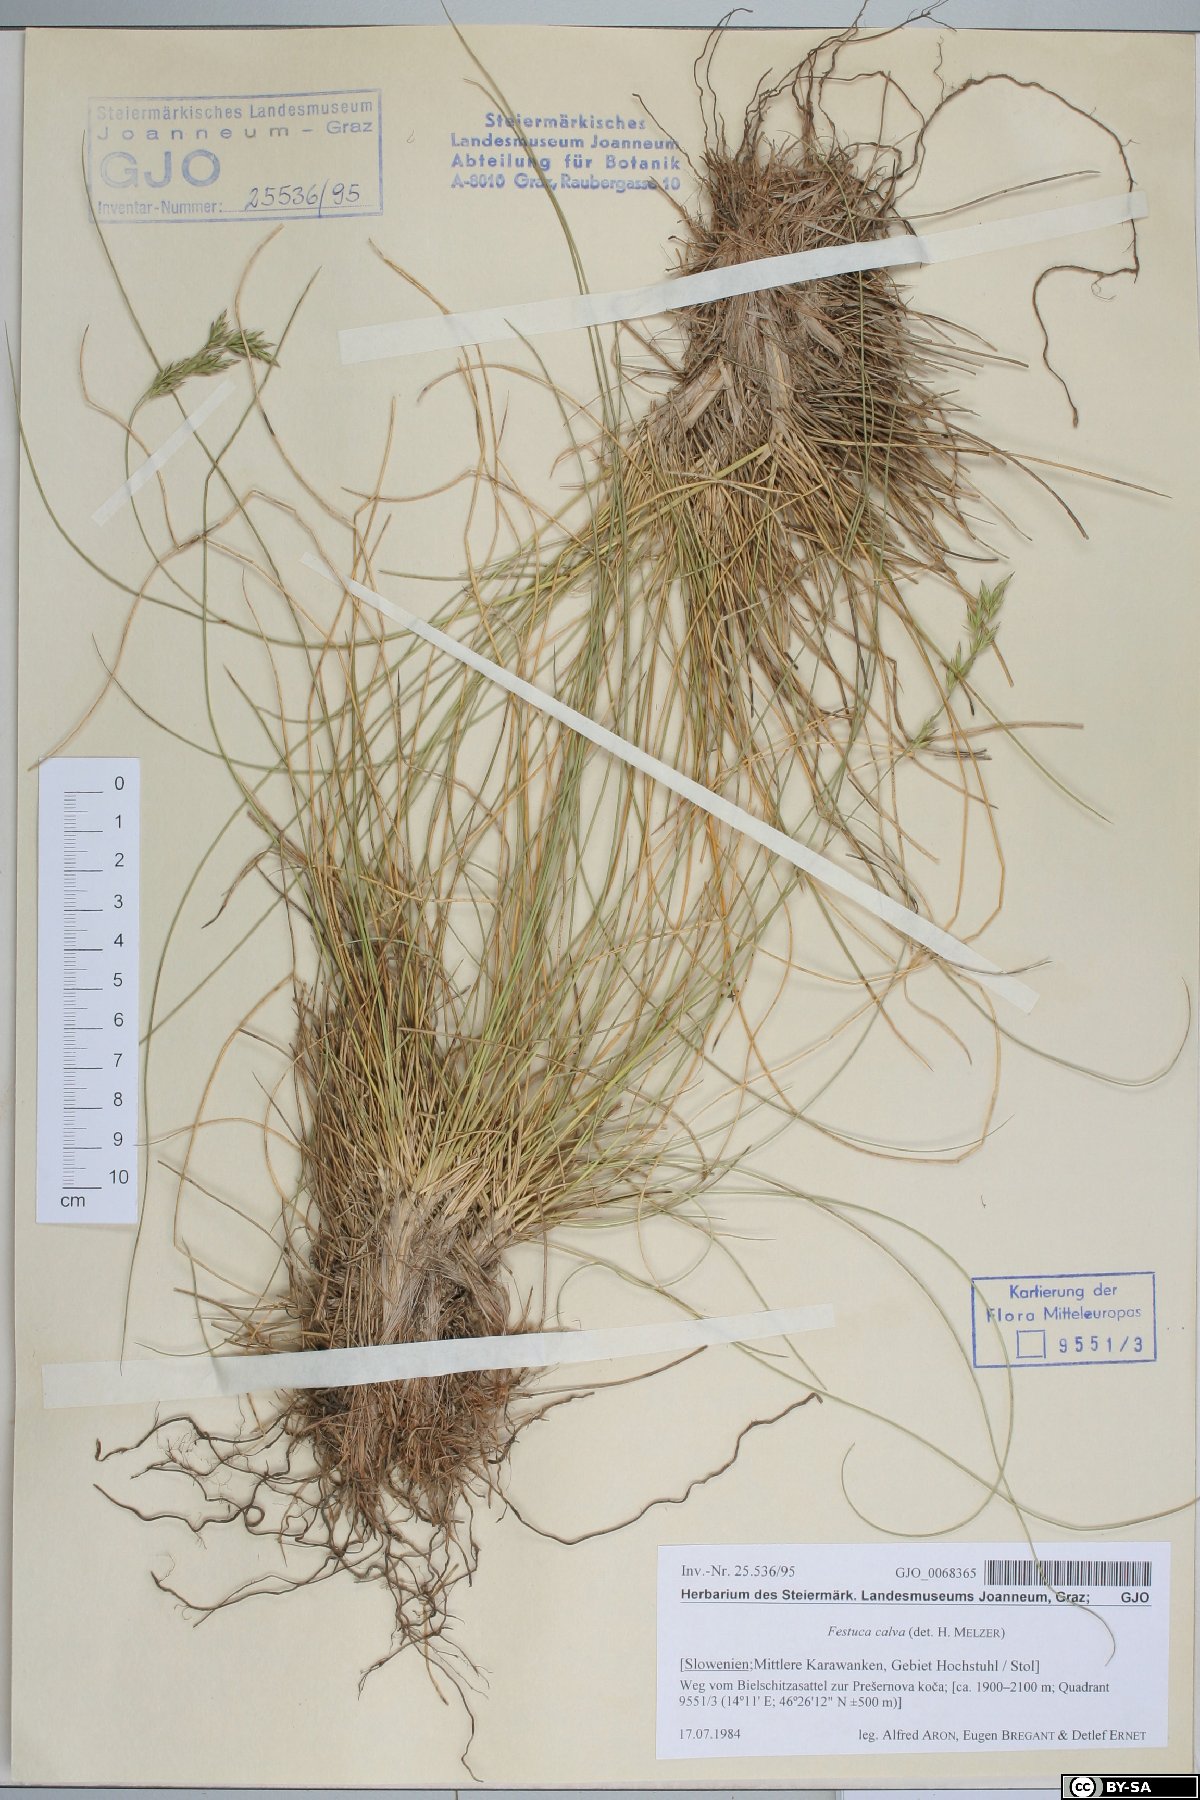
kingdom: Plantae
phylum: Tracheophyta
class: Liliopsida
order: Poales
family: Poaceae
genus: Festuca
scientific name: Festuca calva
